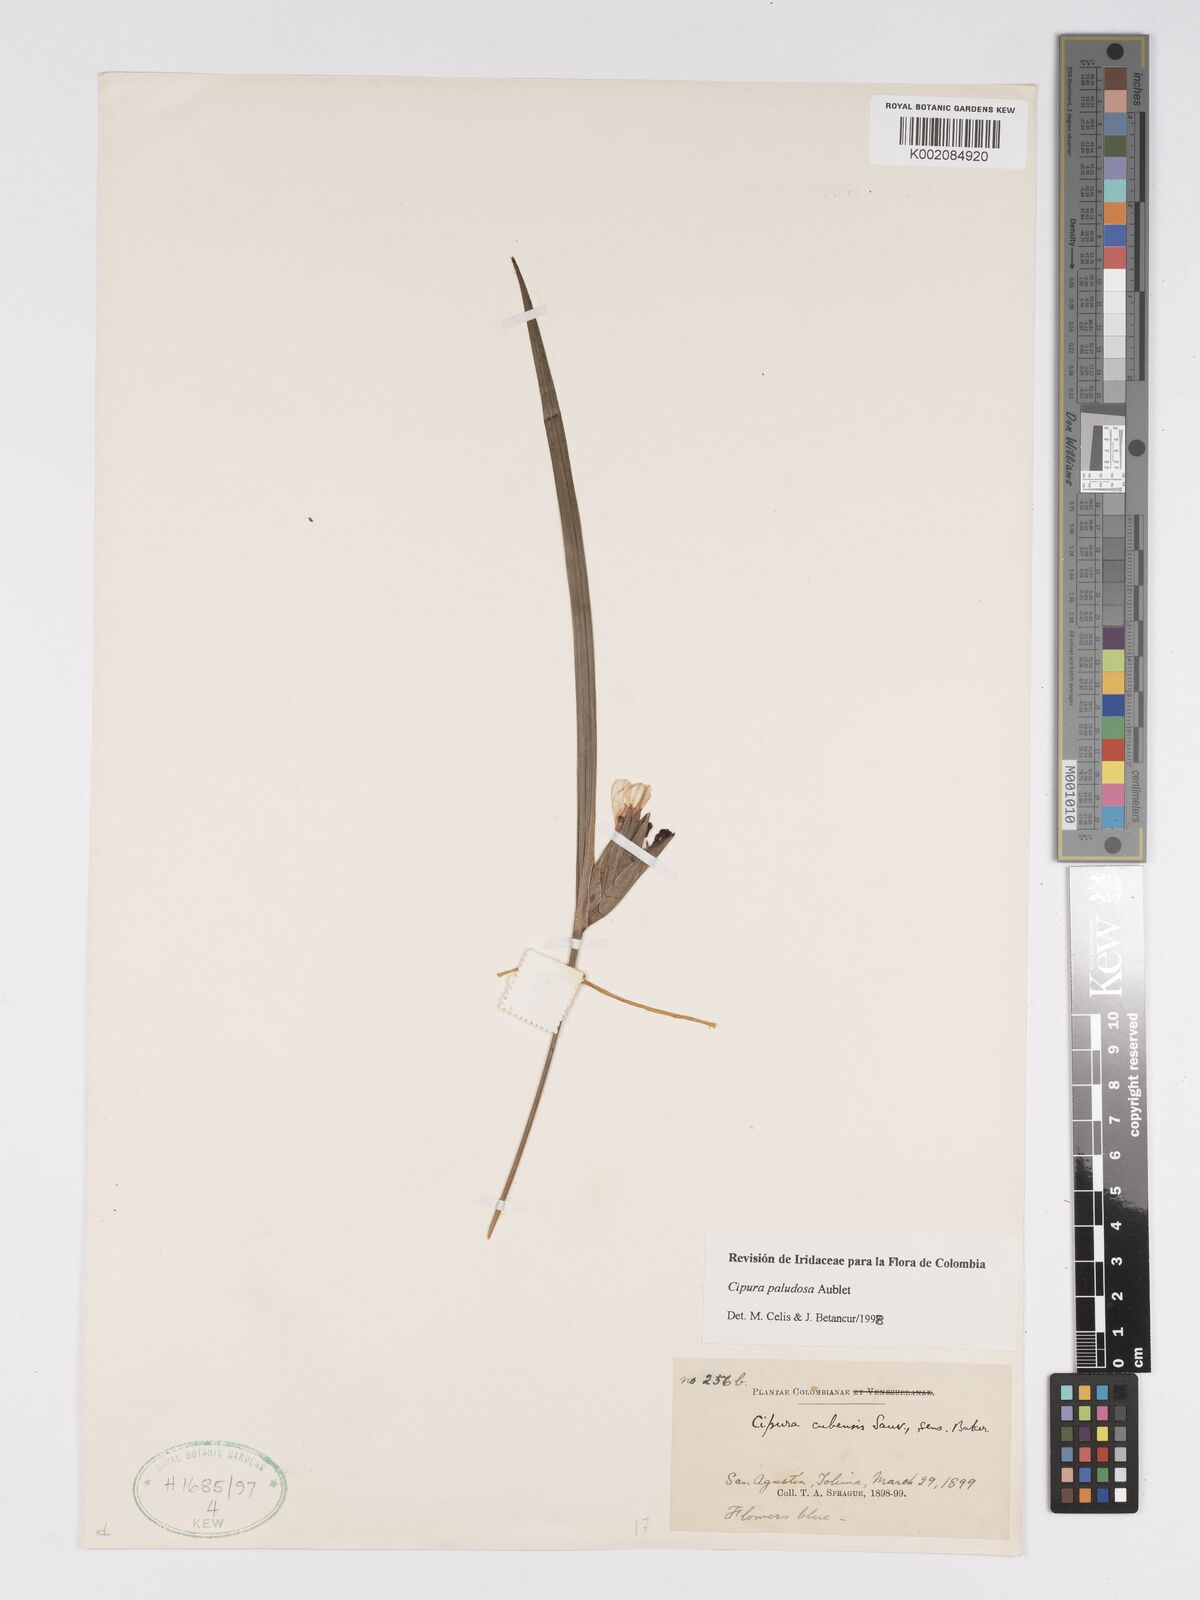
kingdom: Plantae
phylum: Tracheophyta
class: Liliopsida
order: Asparagales
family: Iridaceae
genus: Cipura
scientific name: Cipura paludosa
